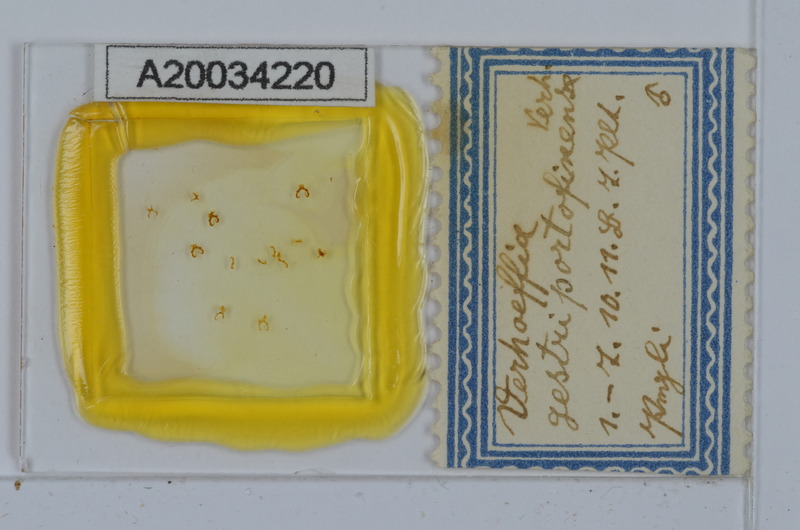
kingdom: Animalia
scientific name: Animalia
